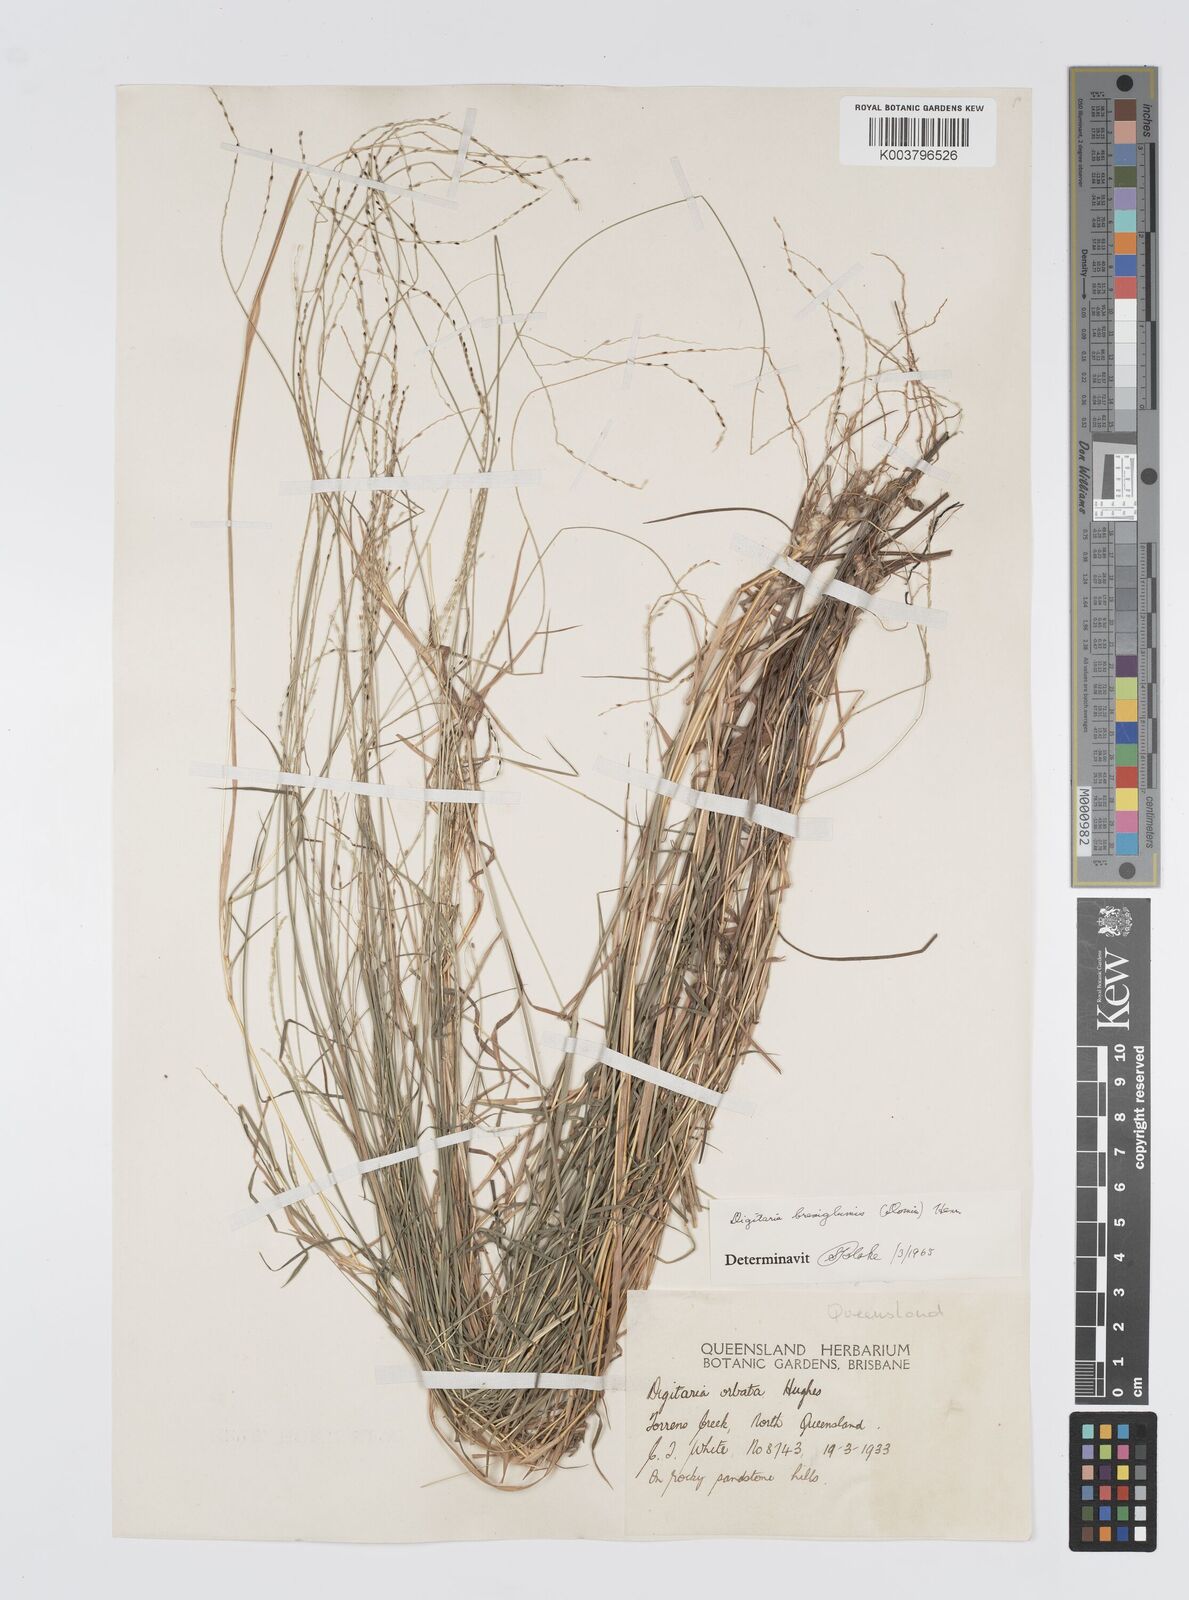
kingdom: Plantae
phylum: Tracheophyta
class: Liliopsida
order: Poales
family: Poaceae
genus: Digitaria
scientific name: Digitaria breviglumis
